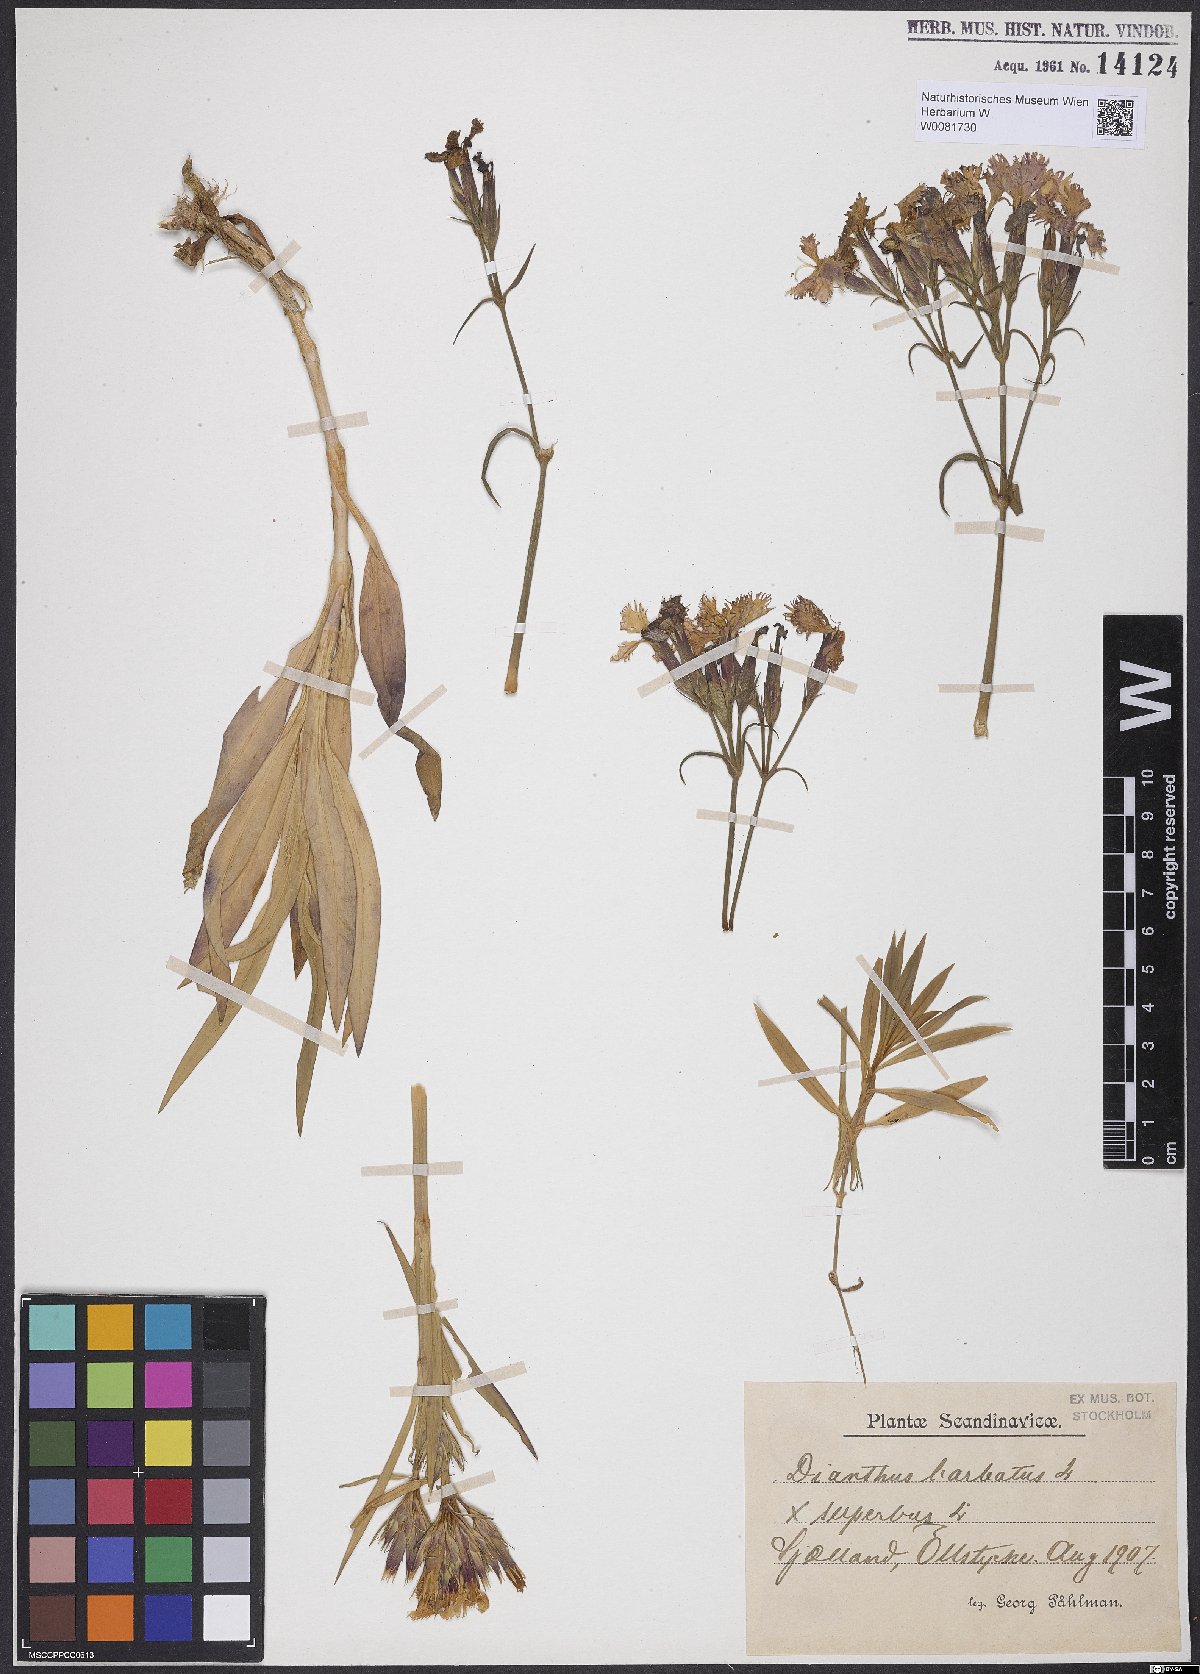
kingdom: Plantae
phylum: Tracheophyta
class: Magnoliopsida
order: Caryophyllales
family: Caryophyllaceae
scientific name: Caryophyllaceae
